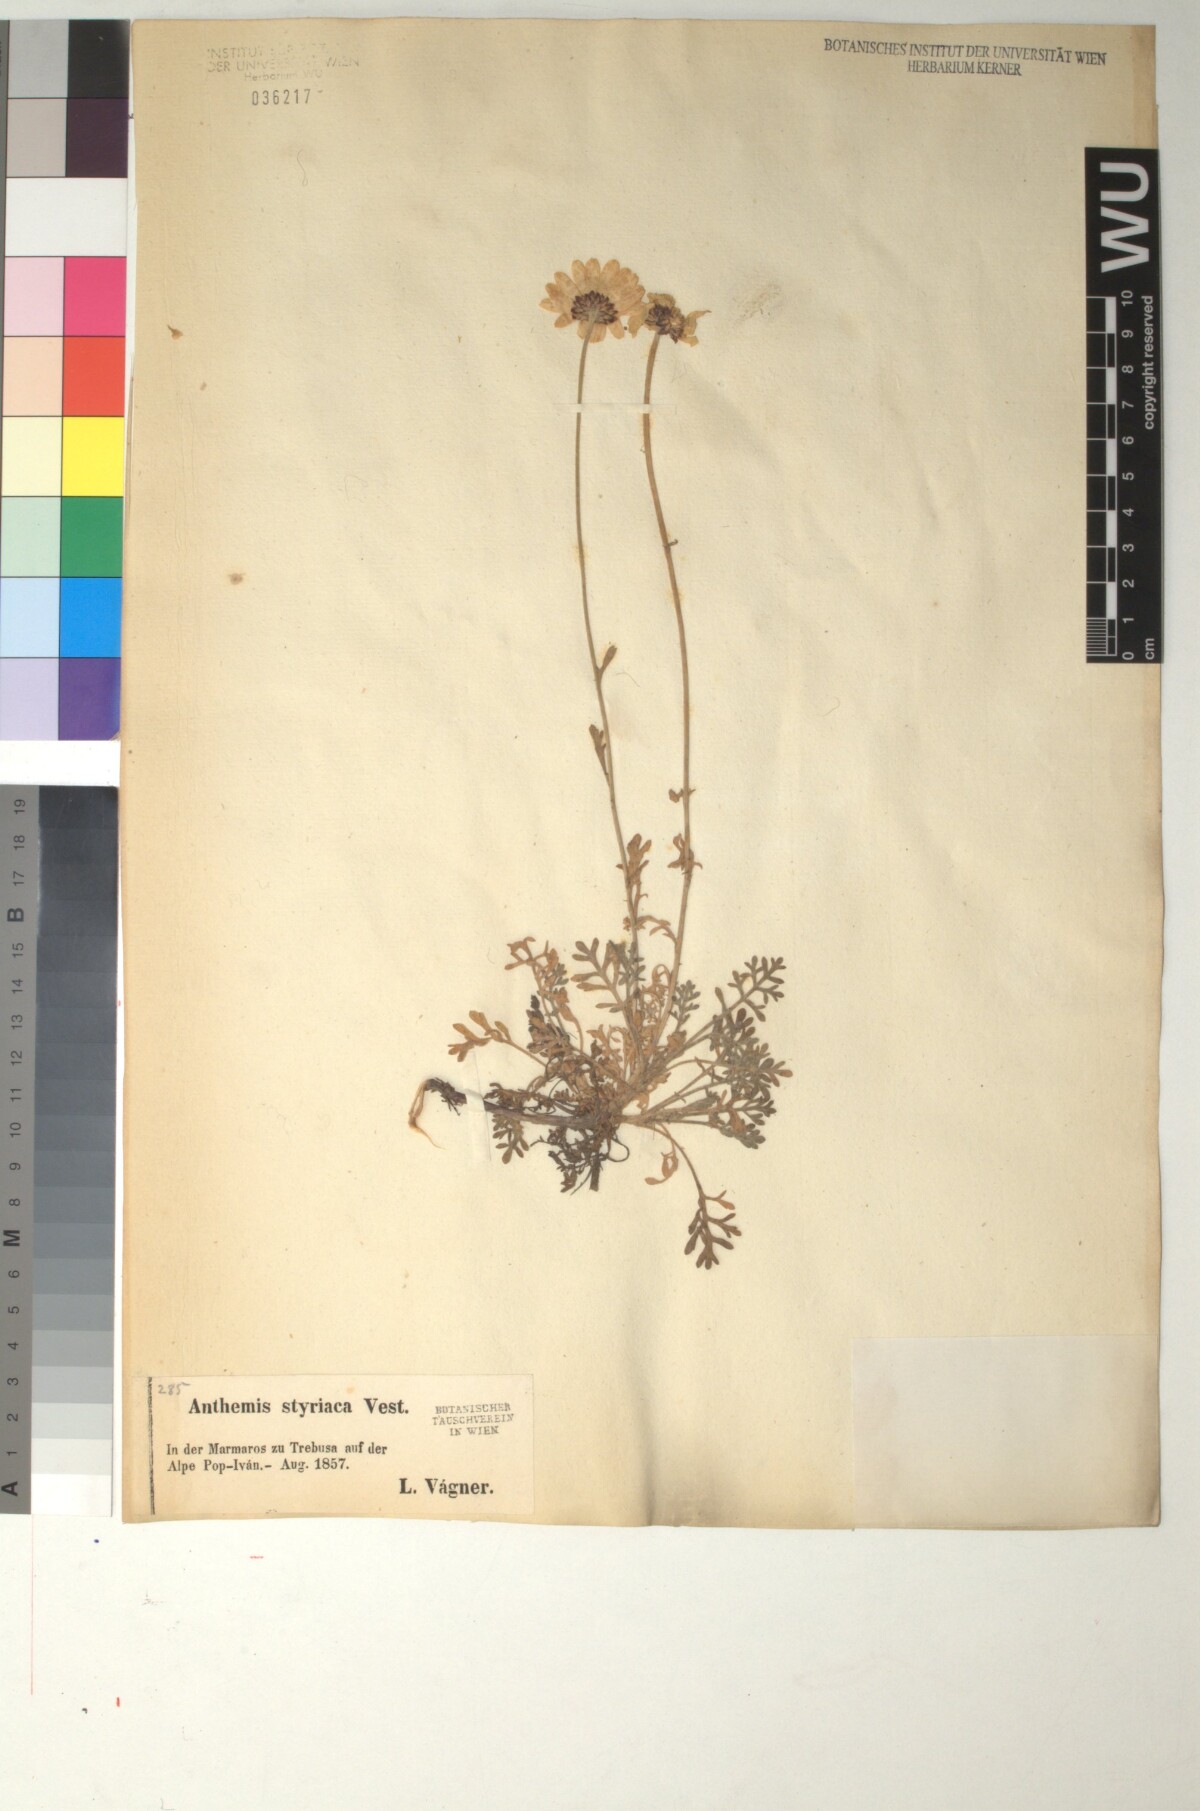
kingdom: Plantae
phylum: Tracheophyta
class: Magnoliopsida
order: Asterales
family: Asteraceae
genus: Anthemis
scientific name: Anthemis cretica
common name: Mountain dog-daisy
